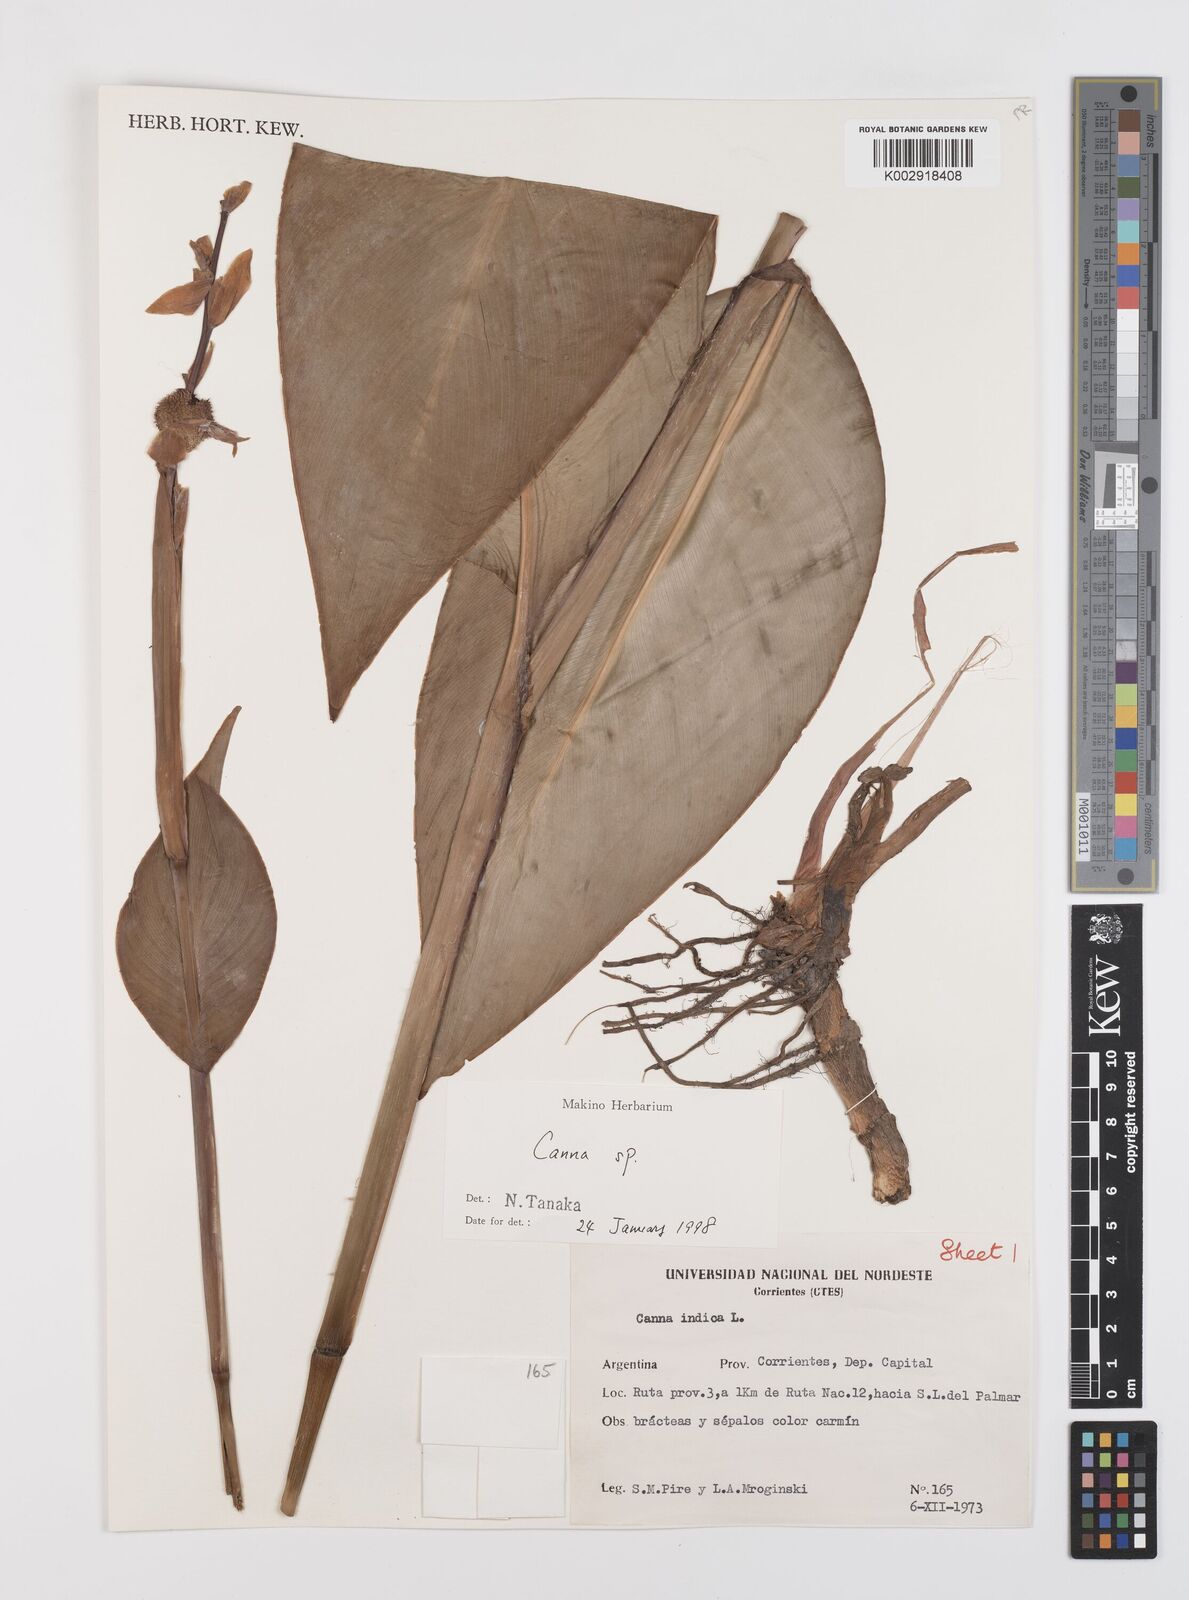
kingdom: Plantae
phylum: Tracheophyta
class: Liliopsida
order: Zingiberales
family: Cannaceae
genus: Canna
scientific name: Canna indica
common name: Indian shot
